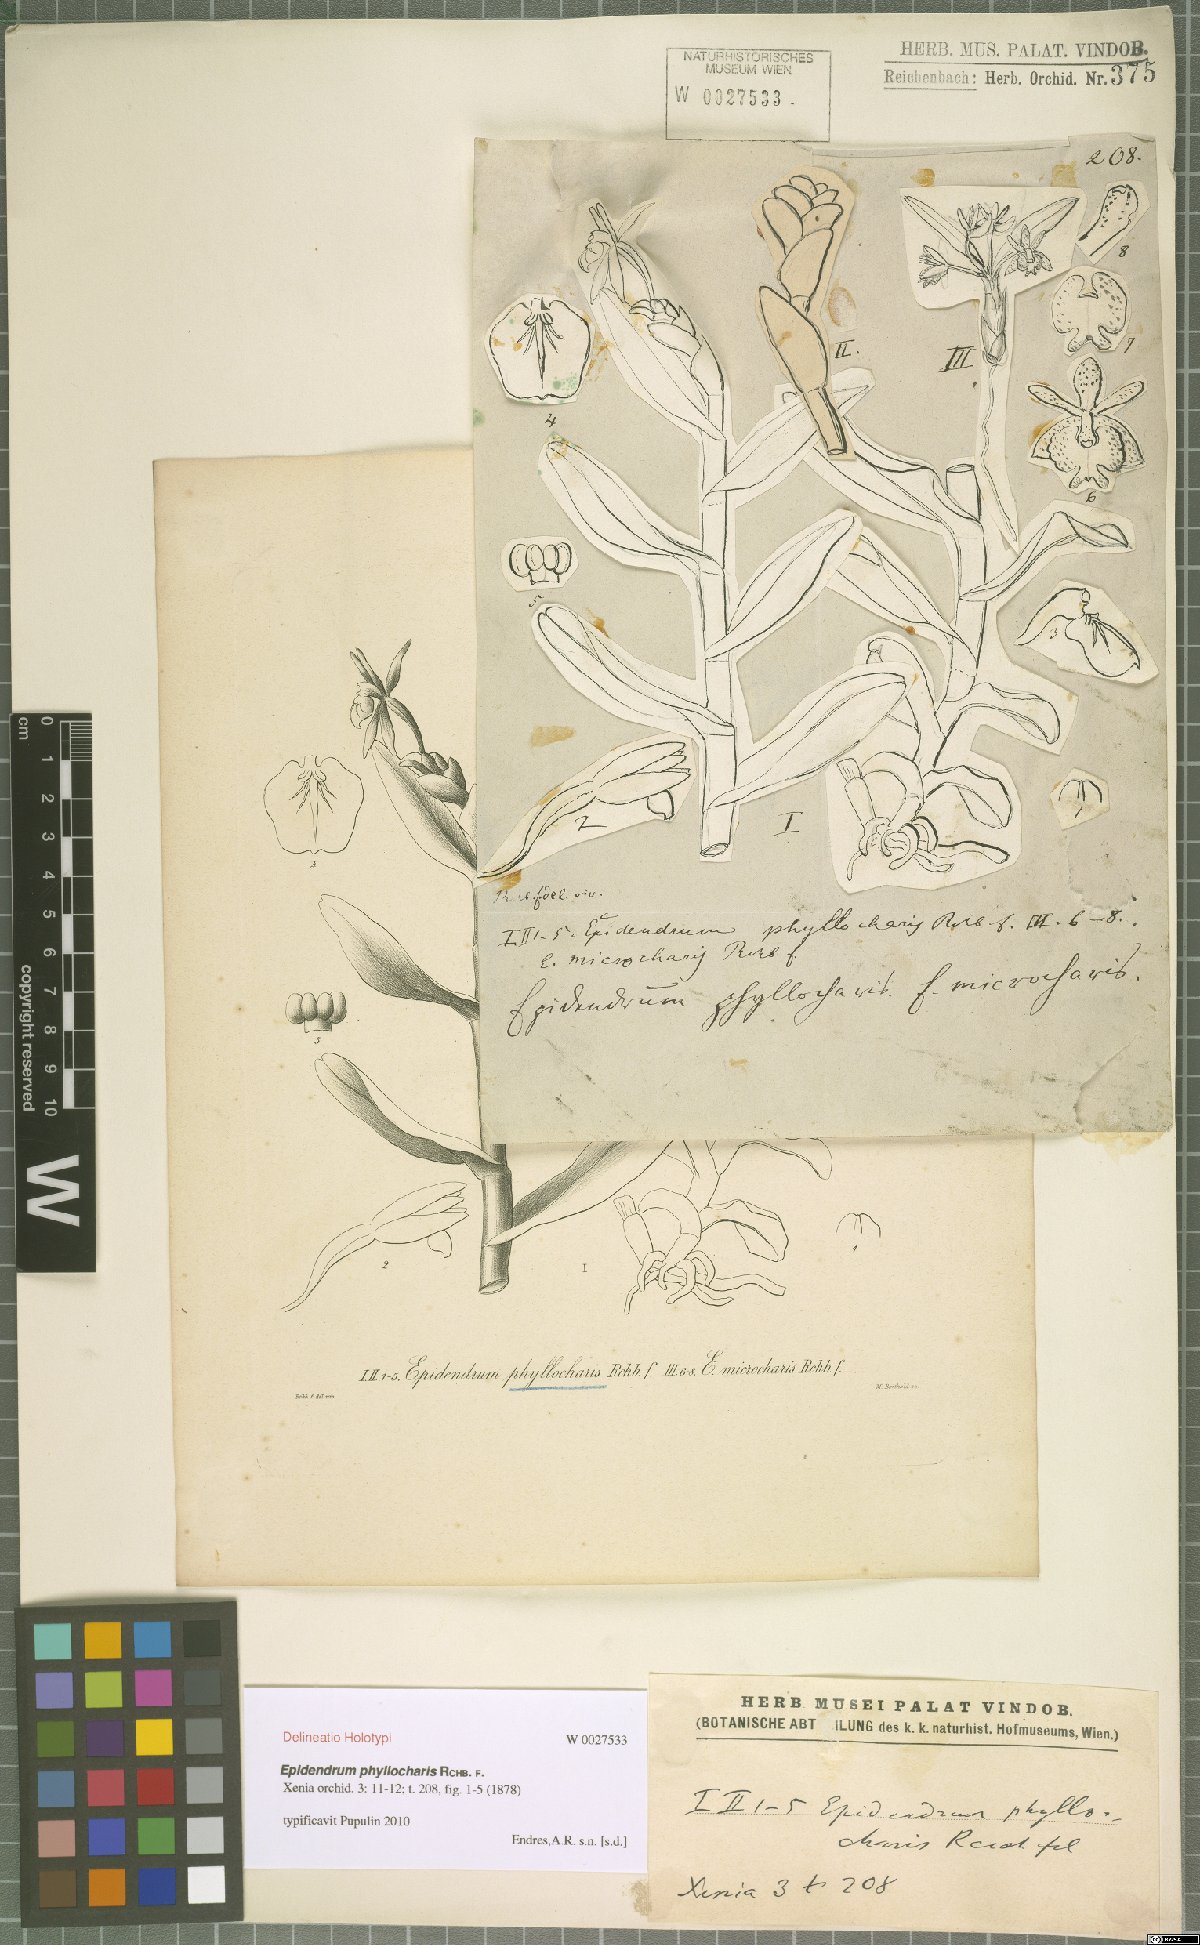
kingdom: Plantae
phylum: Tracheophyta
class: Liliopsida
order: Asparagales
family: Orchidaceae
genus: Epidendrum
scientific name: Epidendrum phyllocharis
